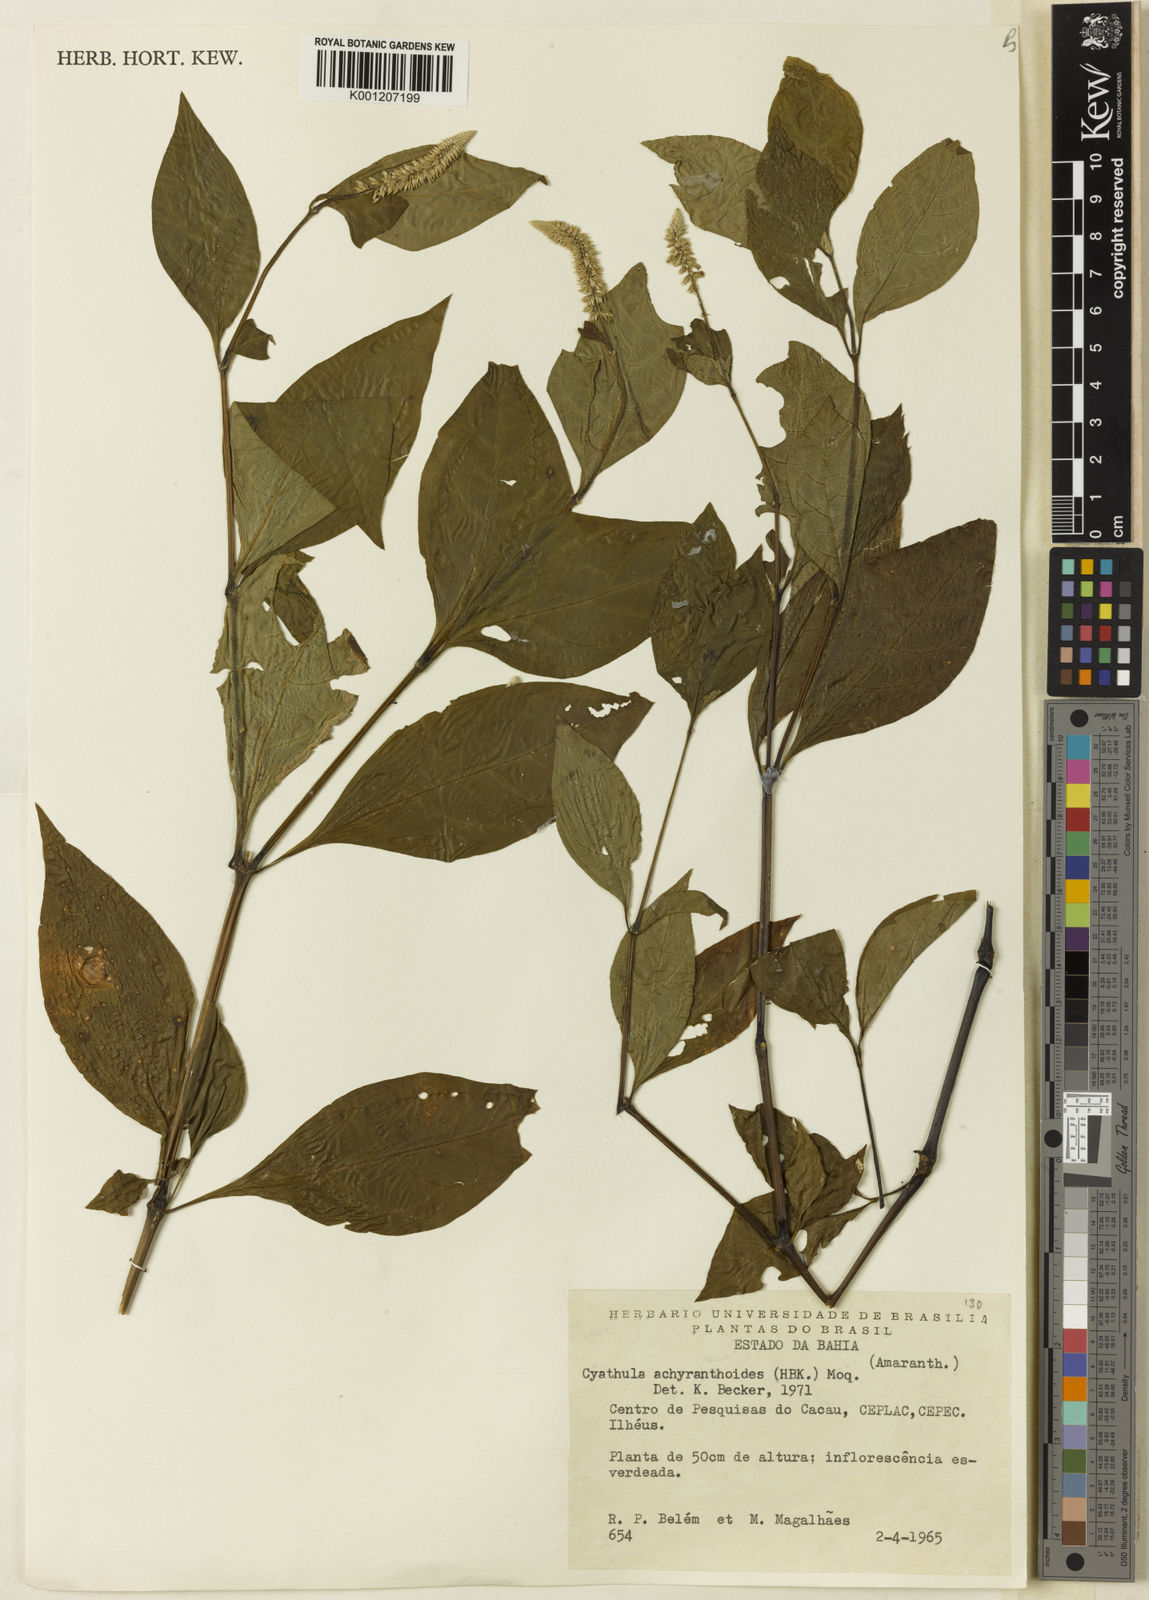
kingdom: Plantae
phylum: Tracheophyta
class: Magnoliopsida
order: Caryophyllales
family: Amaranthaceae
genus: Cyathula
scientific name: Cyathula achyranthoides
